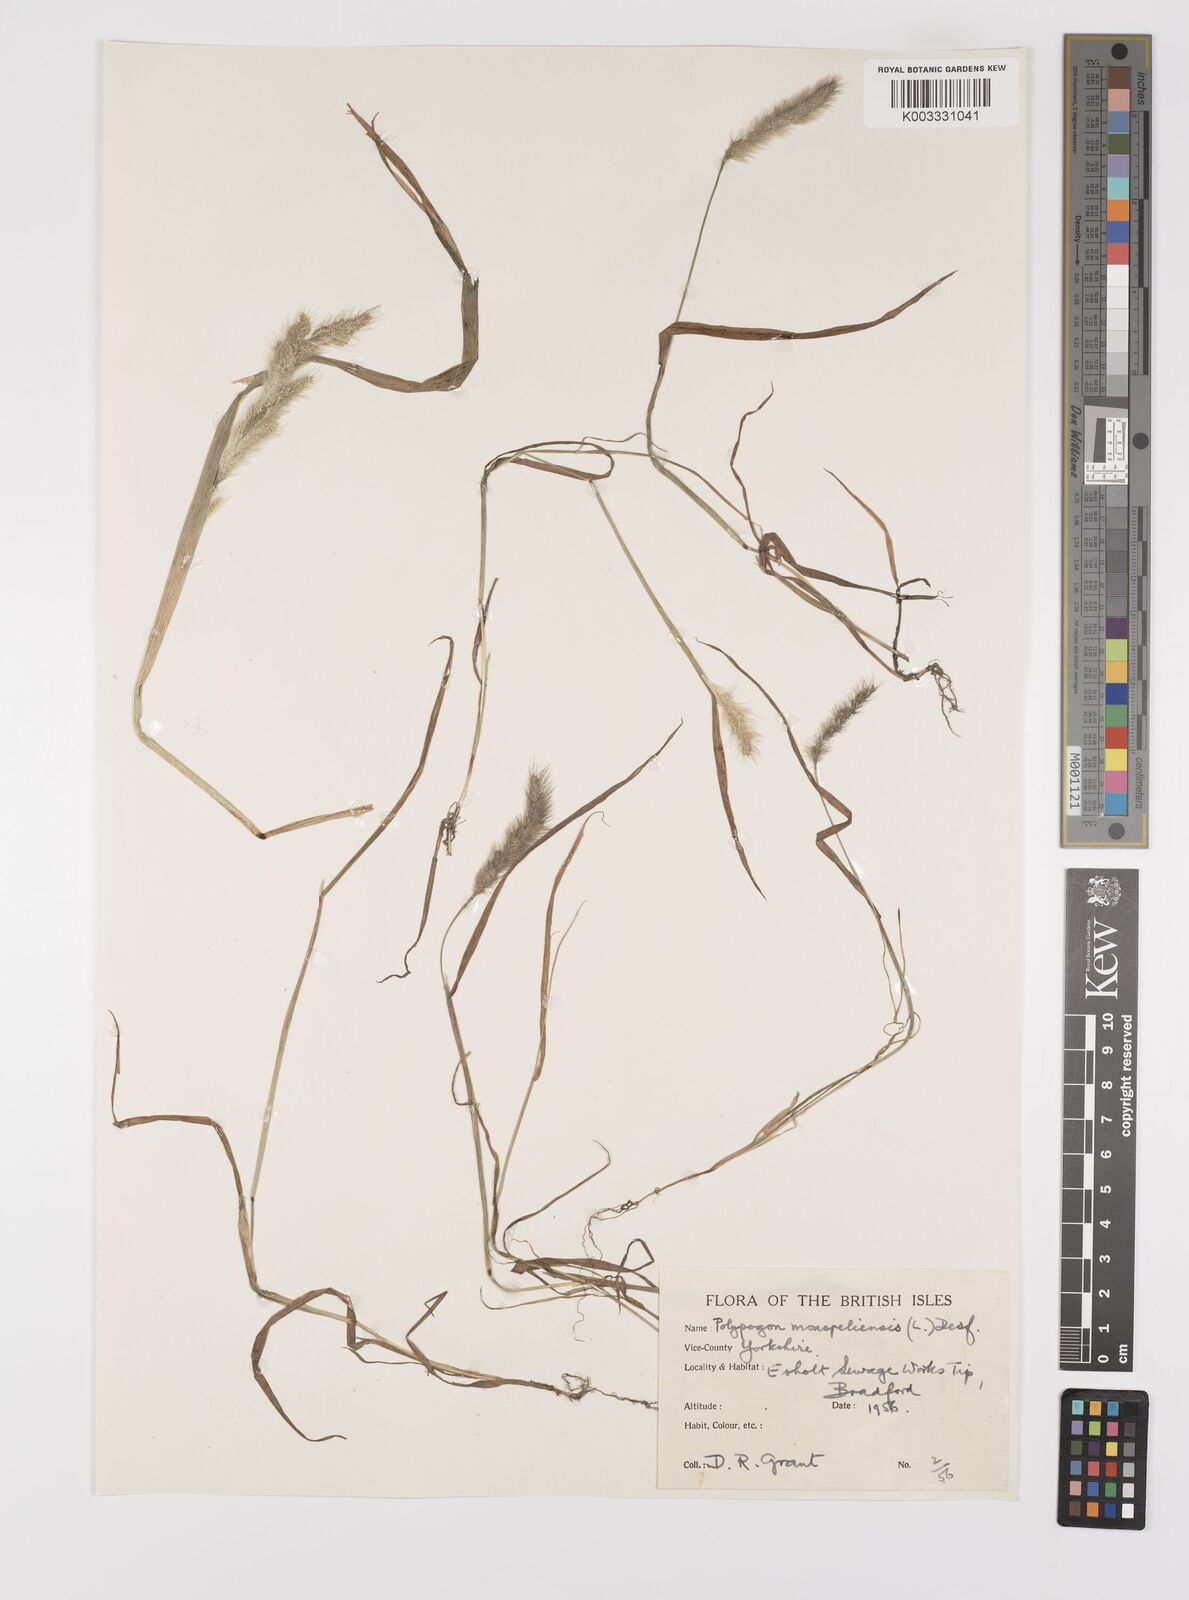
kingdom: Plantae
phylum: Tracheophyta
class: Liliopsida
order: Poales
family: Poaceae
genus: Polypogon
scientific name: Polypogon monspeliensis
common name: Annual rabbitsfoot grass
